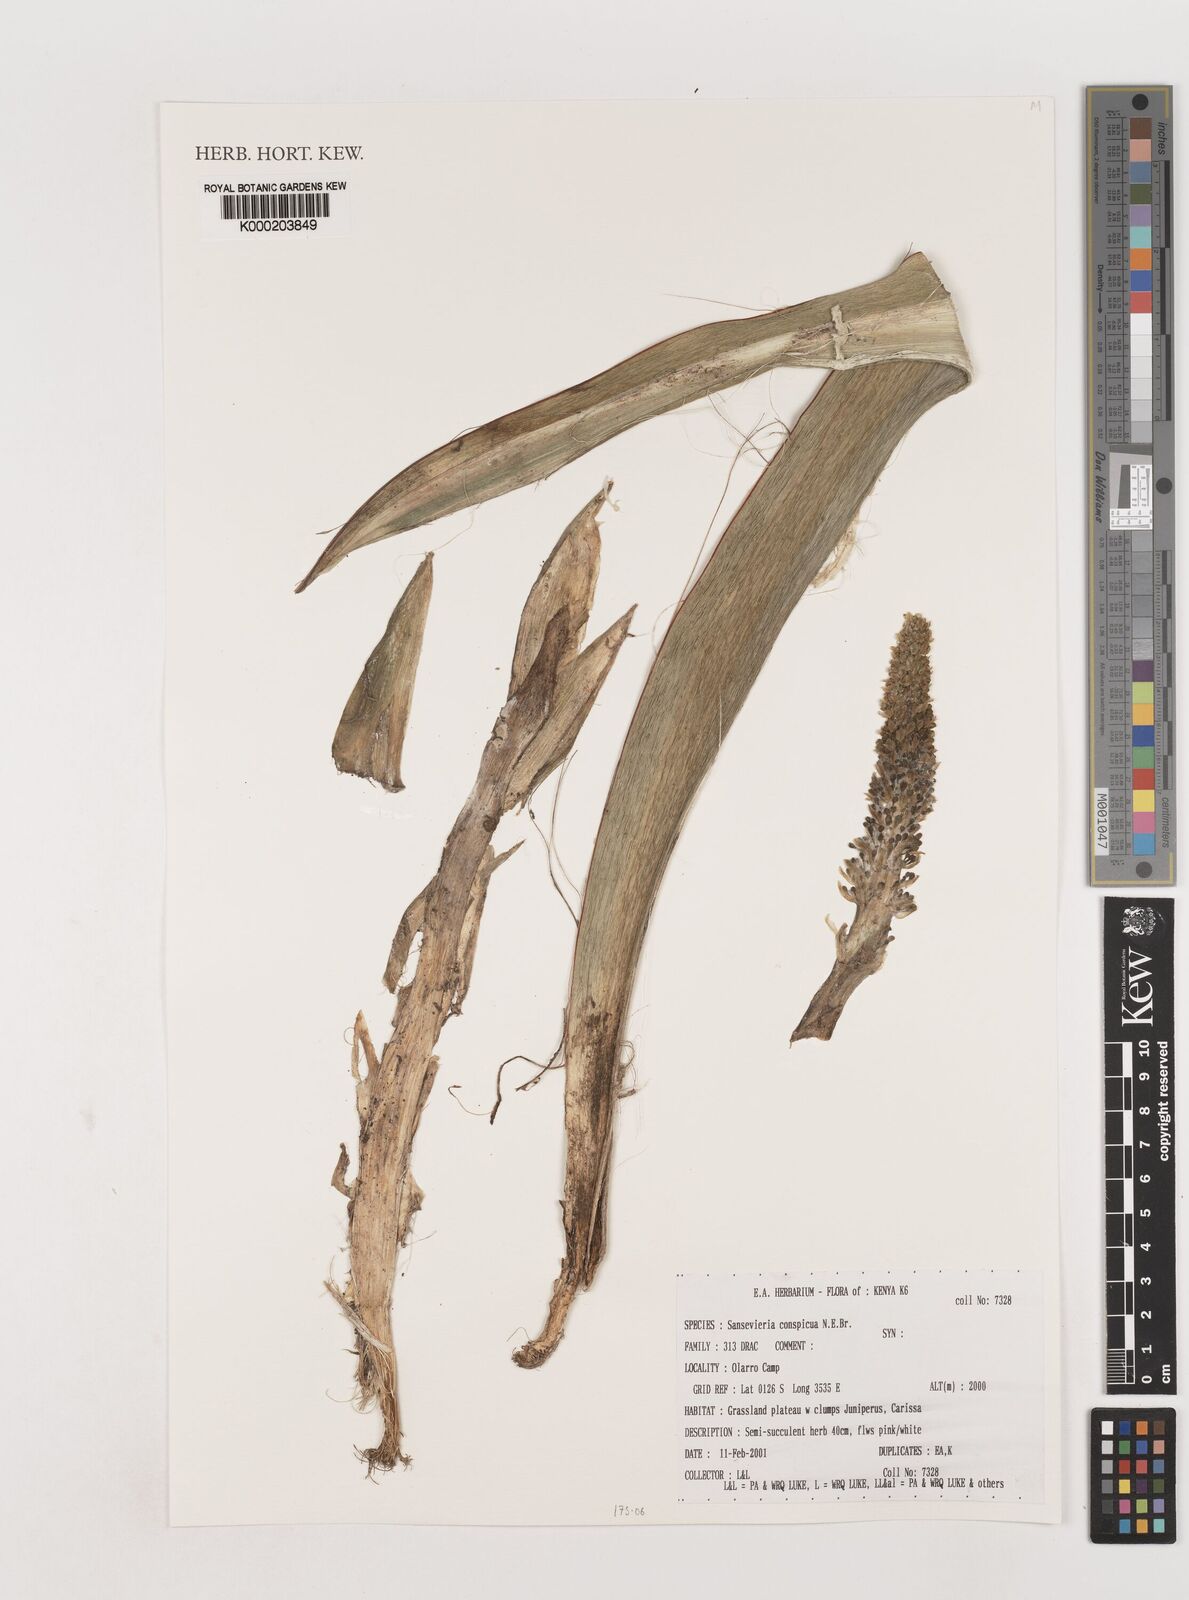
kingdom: Plantae
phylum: Tracheophyta
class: Liliopsida
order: Asparagales
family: Asparagaceae
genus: Dracaena
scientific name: Dracaena conspicua
